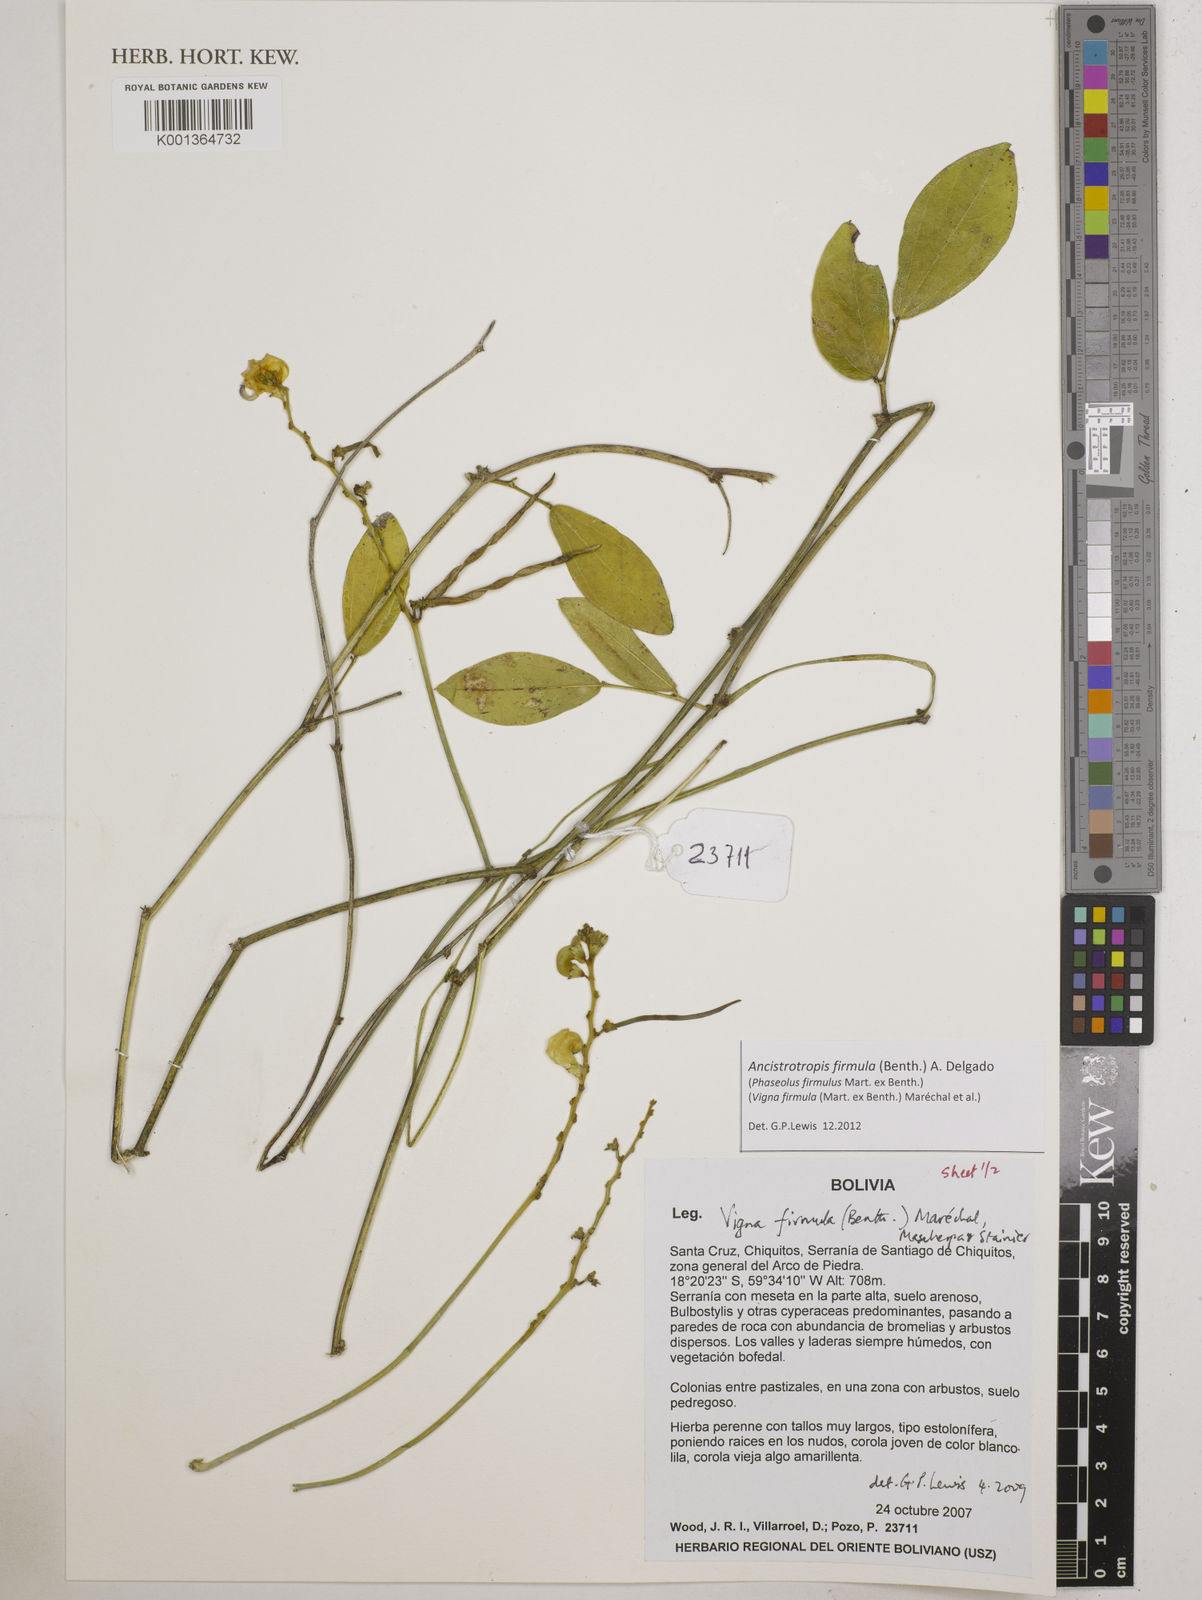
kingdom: Plantae
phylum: Tracheophyta
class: Magnoliopsida
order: Fabales
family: Fabaceae
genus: Ancistrotropis
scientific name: Ancistrotropis firmula
